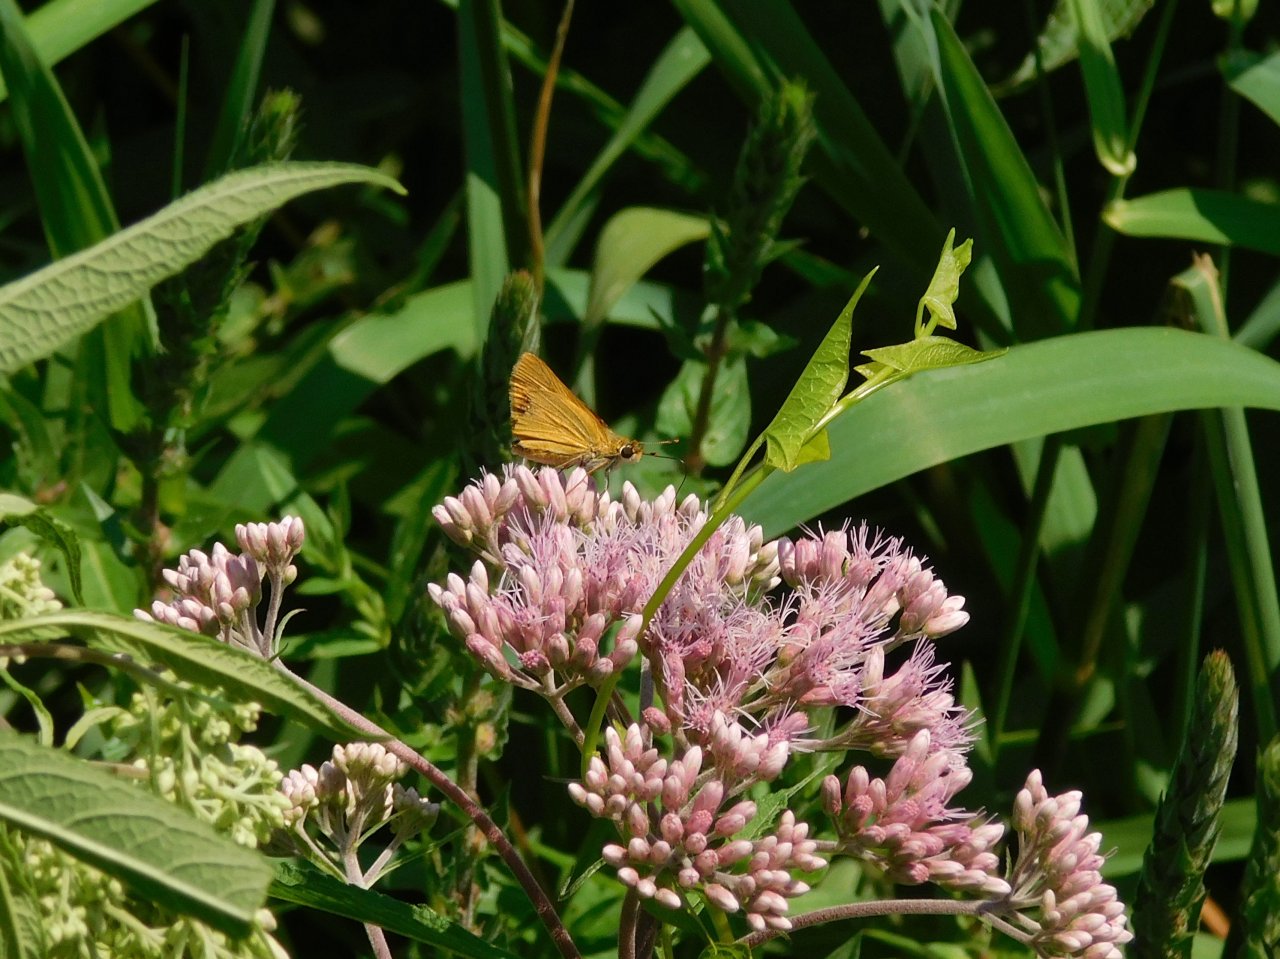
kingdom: Animalia
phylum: Arthropoda
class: Insecta
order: Lepidoptera
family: Hesperiidae
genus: Atrytone
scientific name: Atrytone delaware
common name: Delaware Skipper
